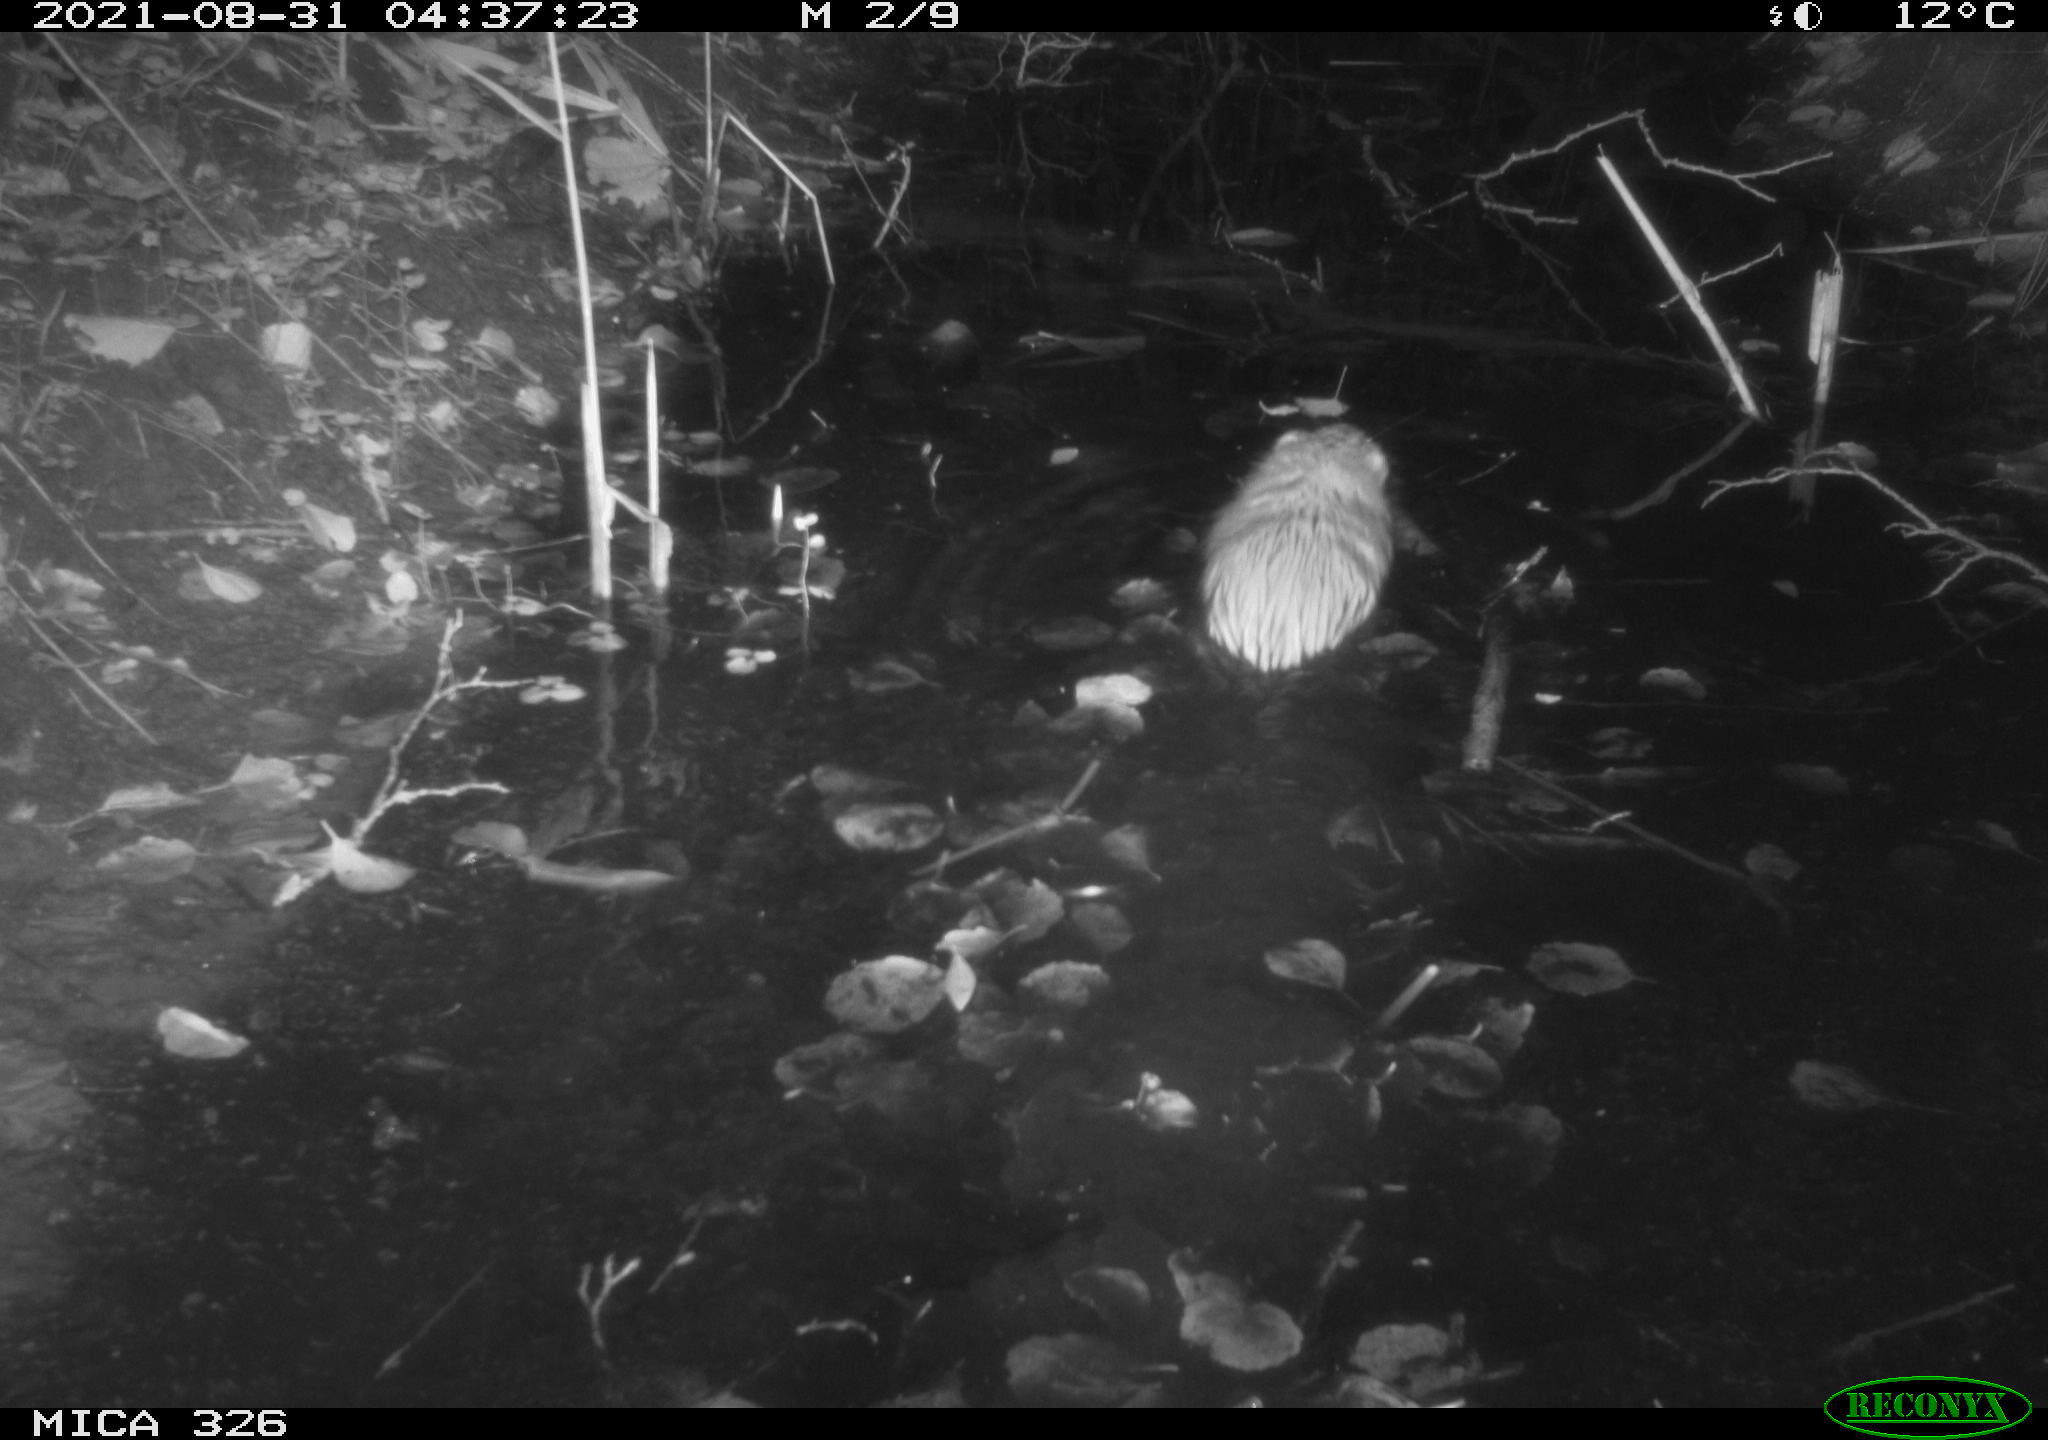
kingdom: Animalia
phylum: Chordata
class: Mammalia
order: Rodentia
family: Cricetidae
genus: Ondatra
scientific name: Ondatra zibethicus
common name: Muskrat
